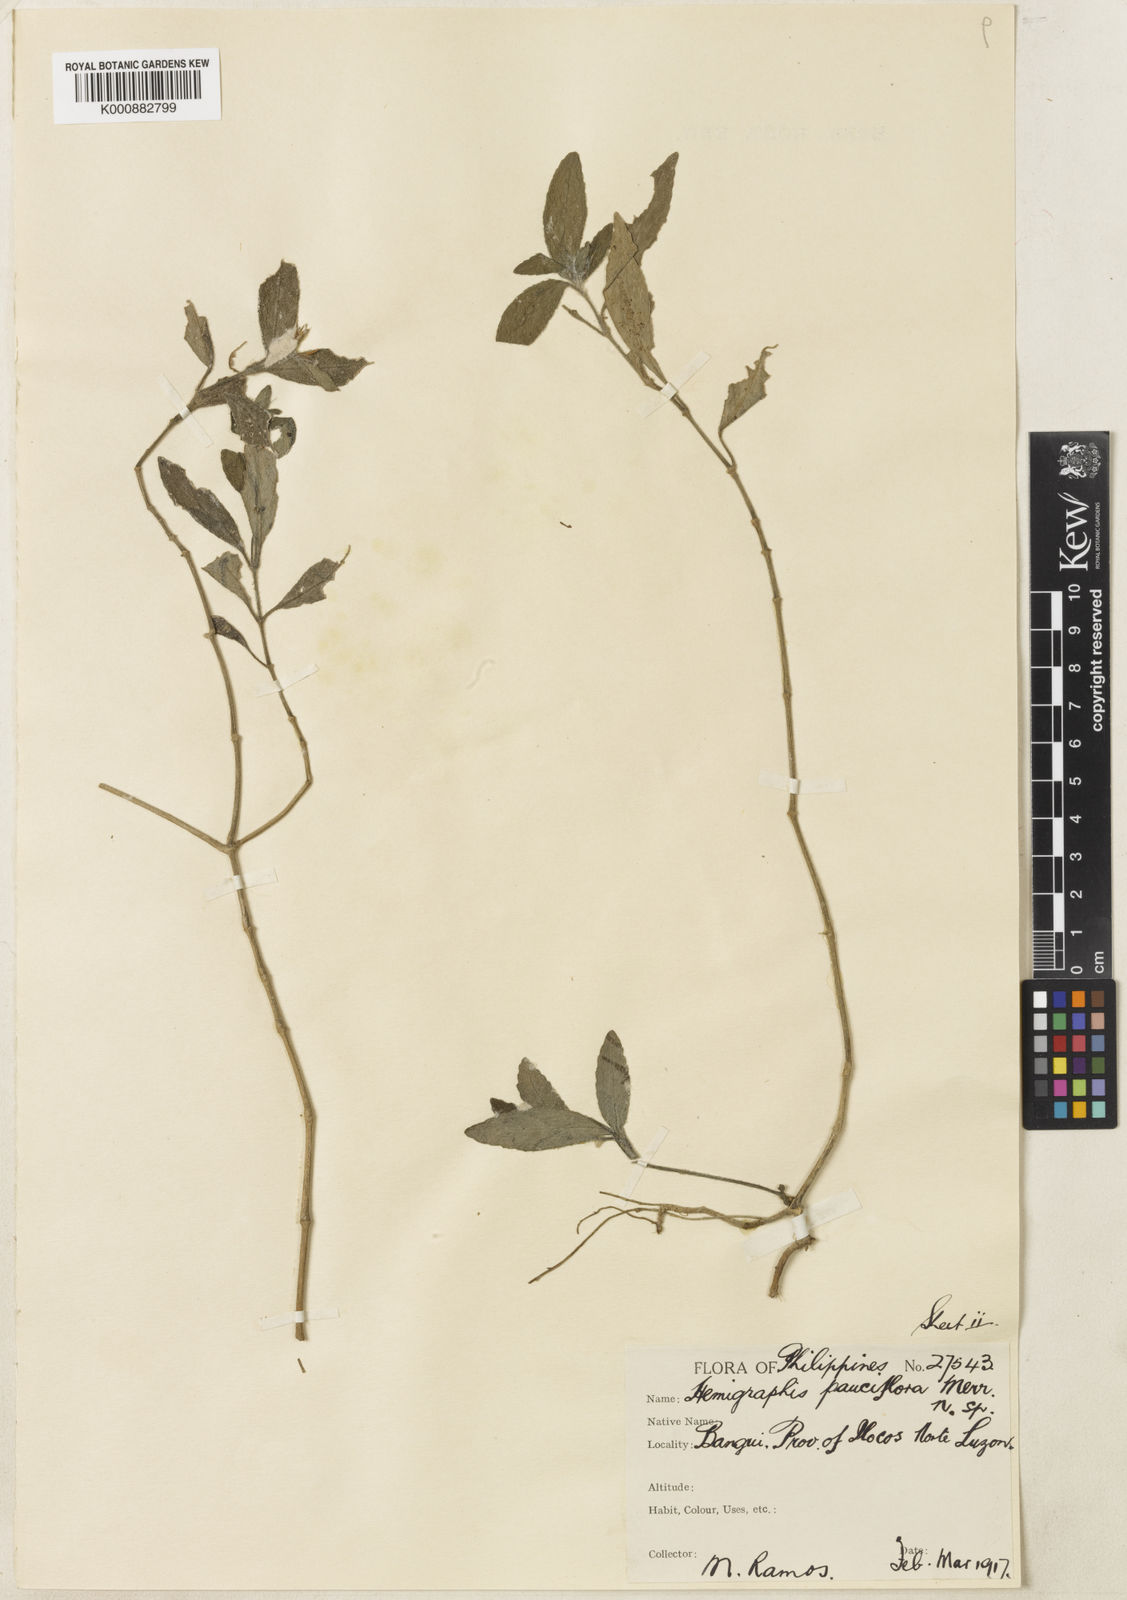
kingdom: Plantae
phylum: Tracheophyta
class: Magnoliopsida
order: Lamiales
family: Acanthaceae
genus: Strobilanthes
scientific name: Strobilanthes pauciflora
